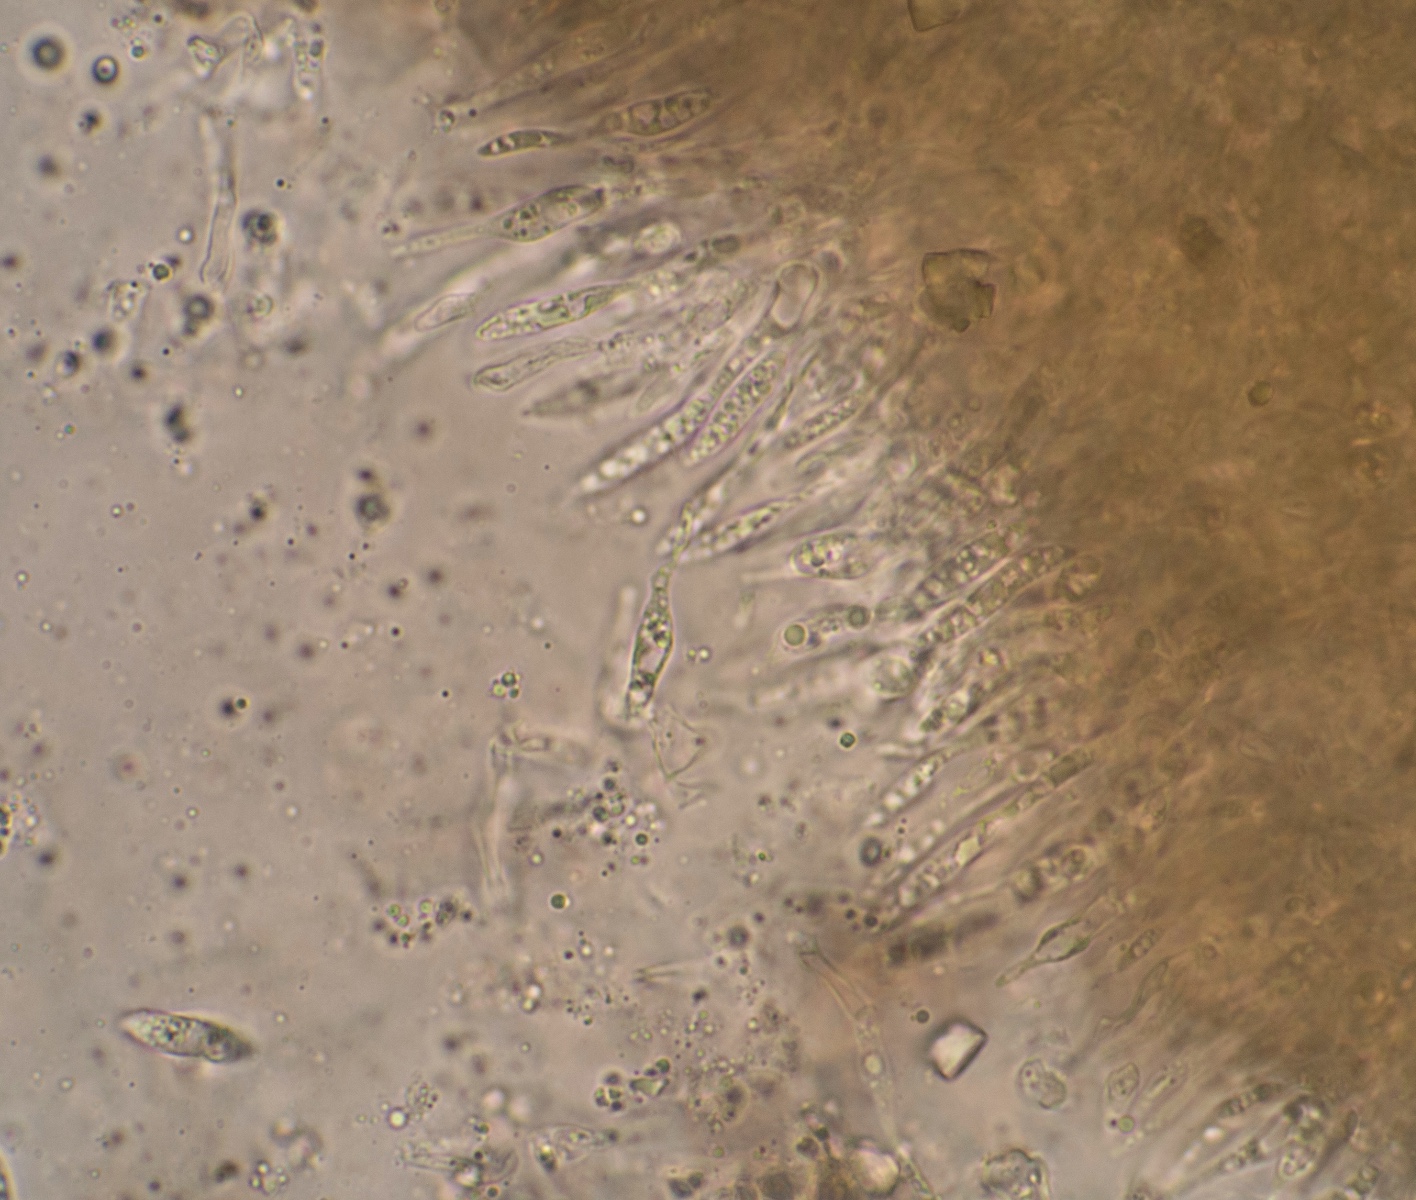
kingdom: Fungi
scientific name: Fungi
